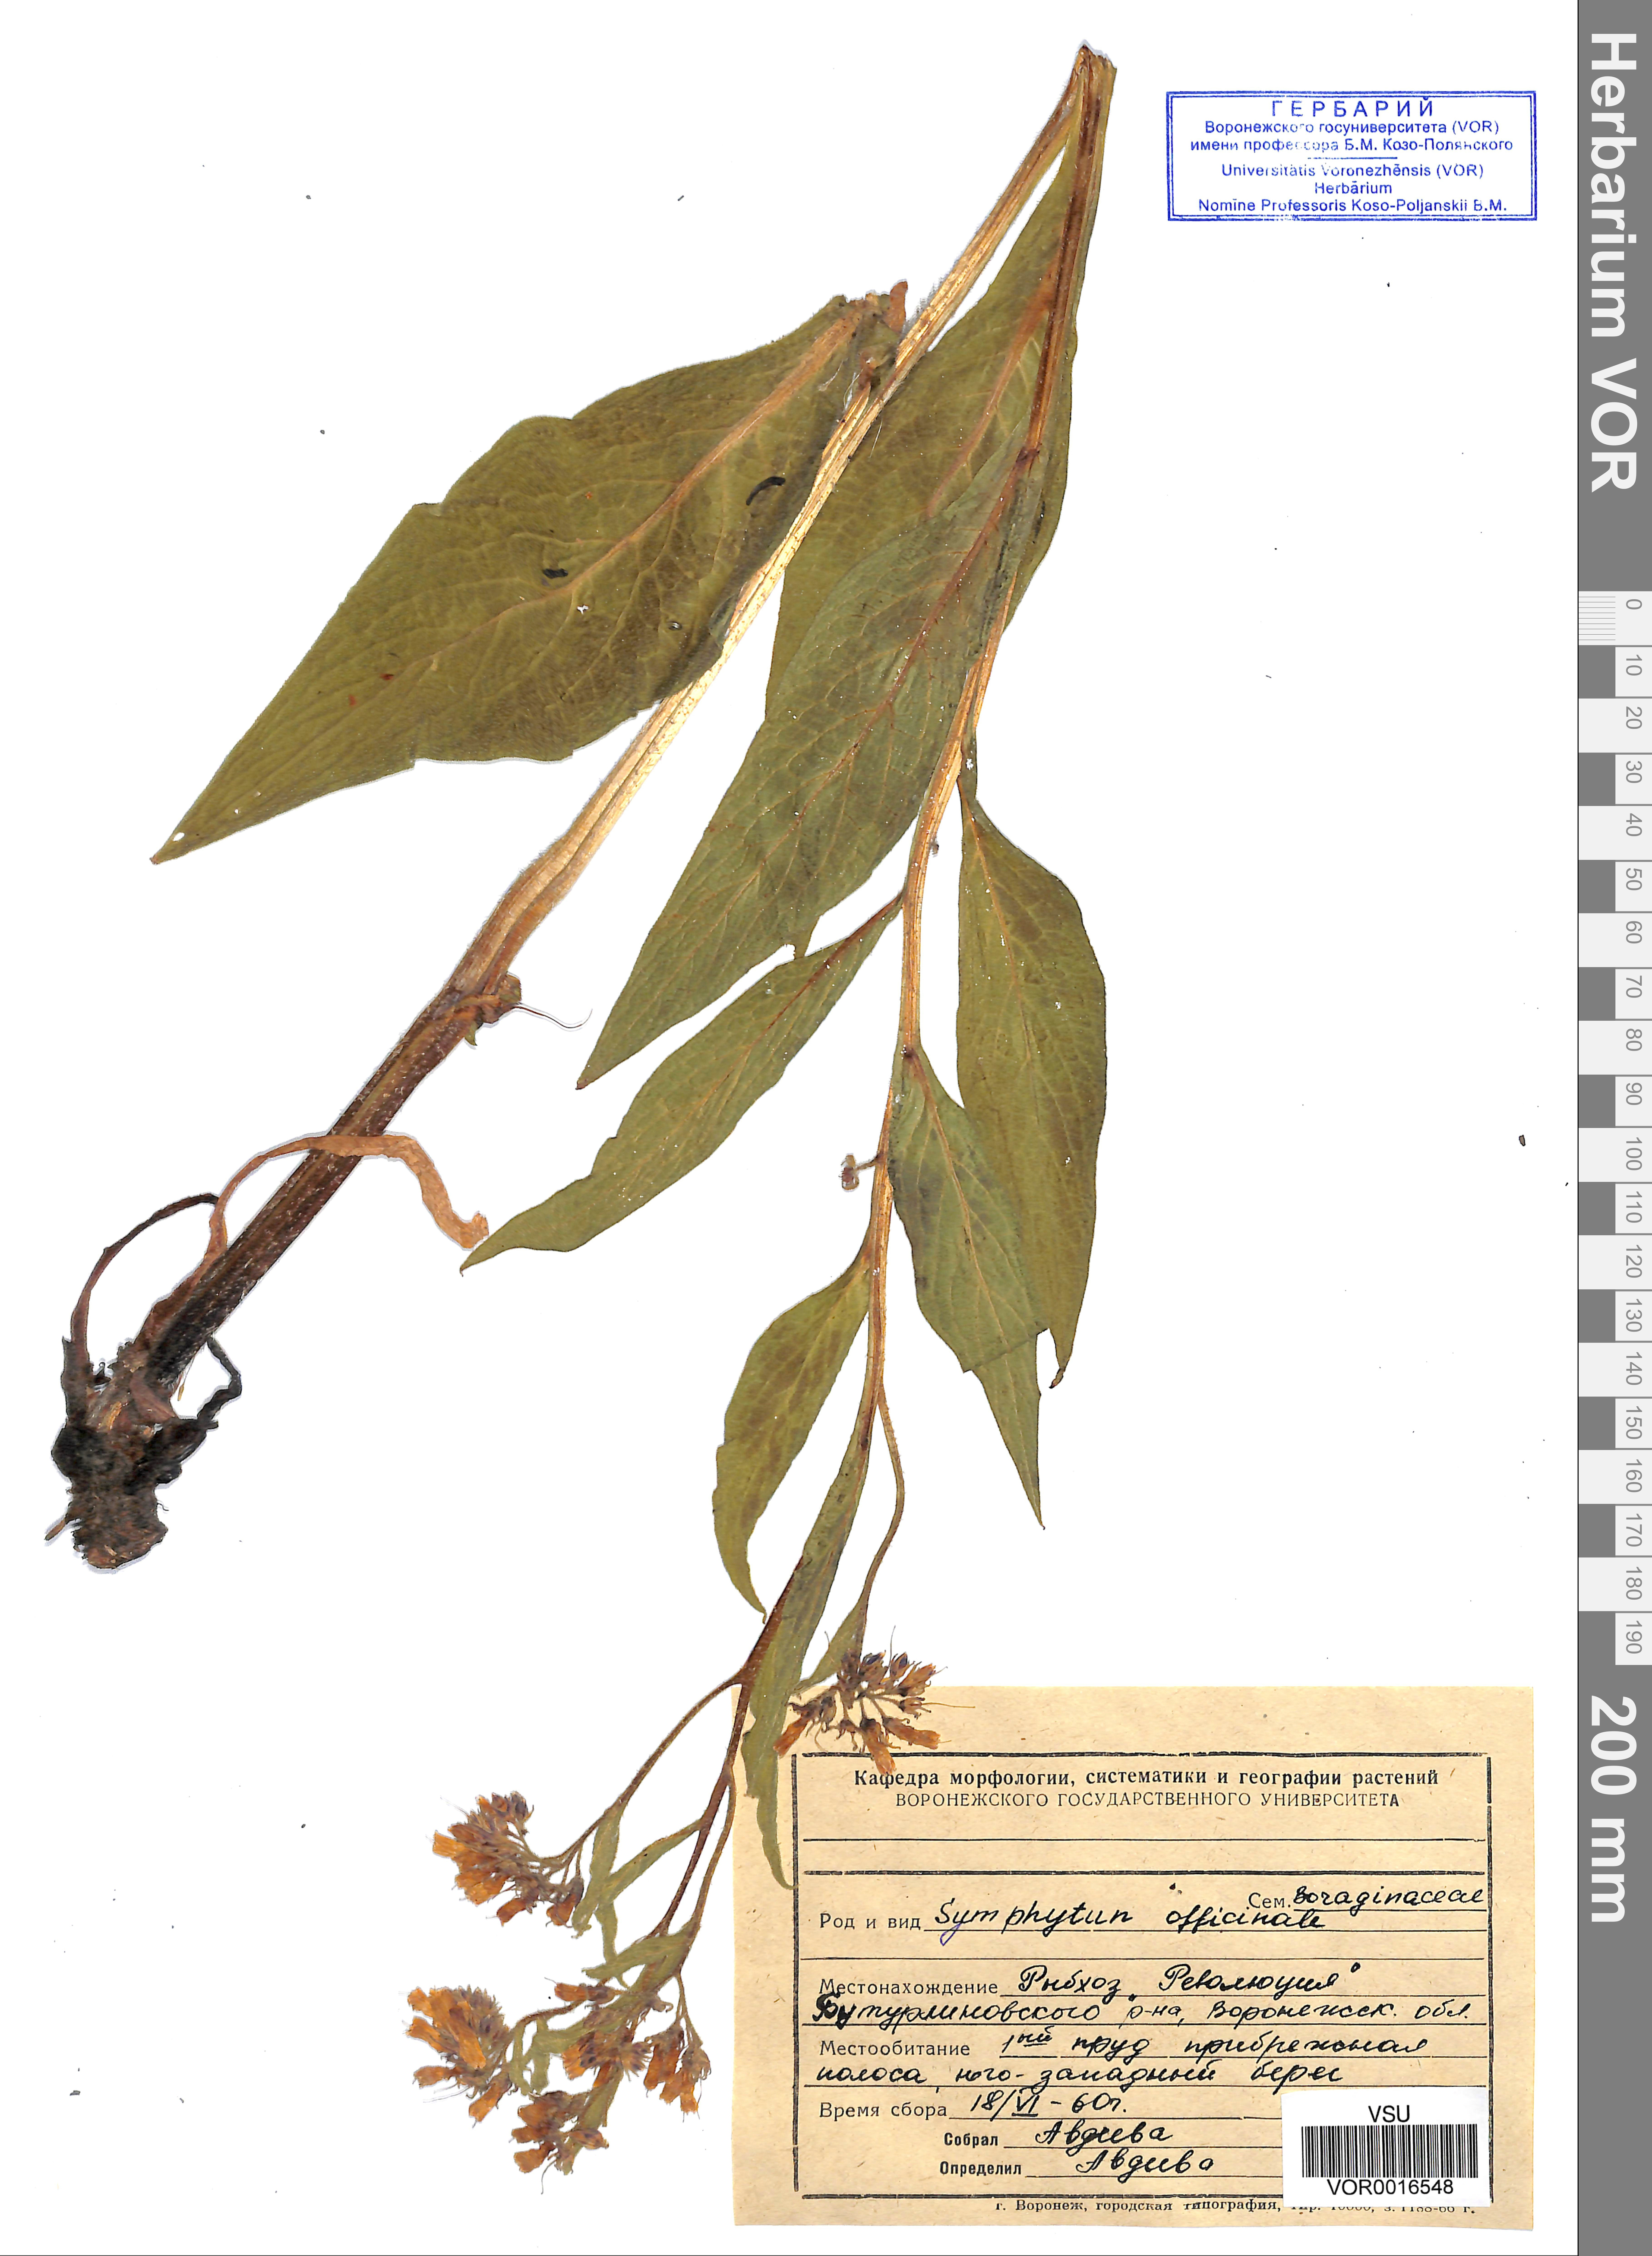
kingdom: Plantae
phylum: Tracheophyta
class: Magnoliopsida
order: Boraginales
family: Boraginaceae
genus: Symphytum
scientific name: Symphytum officinale
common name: Common comfrey
